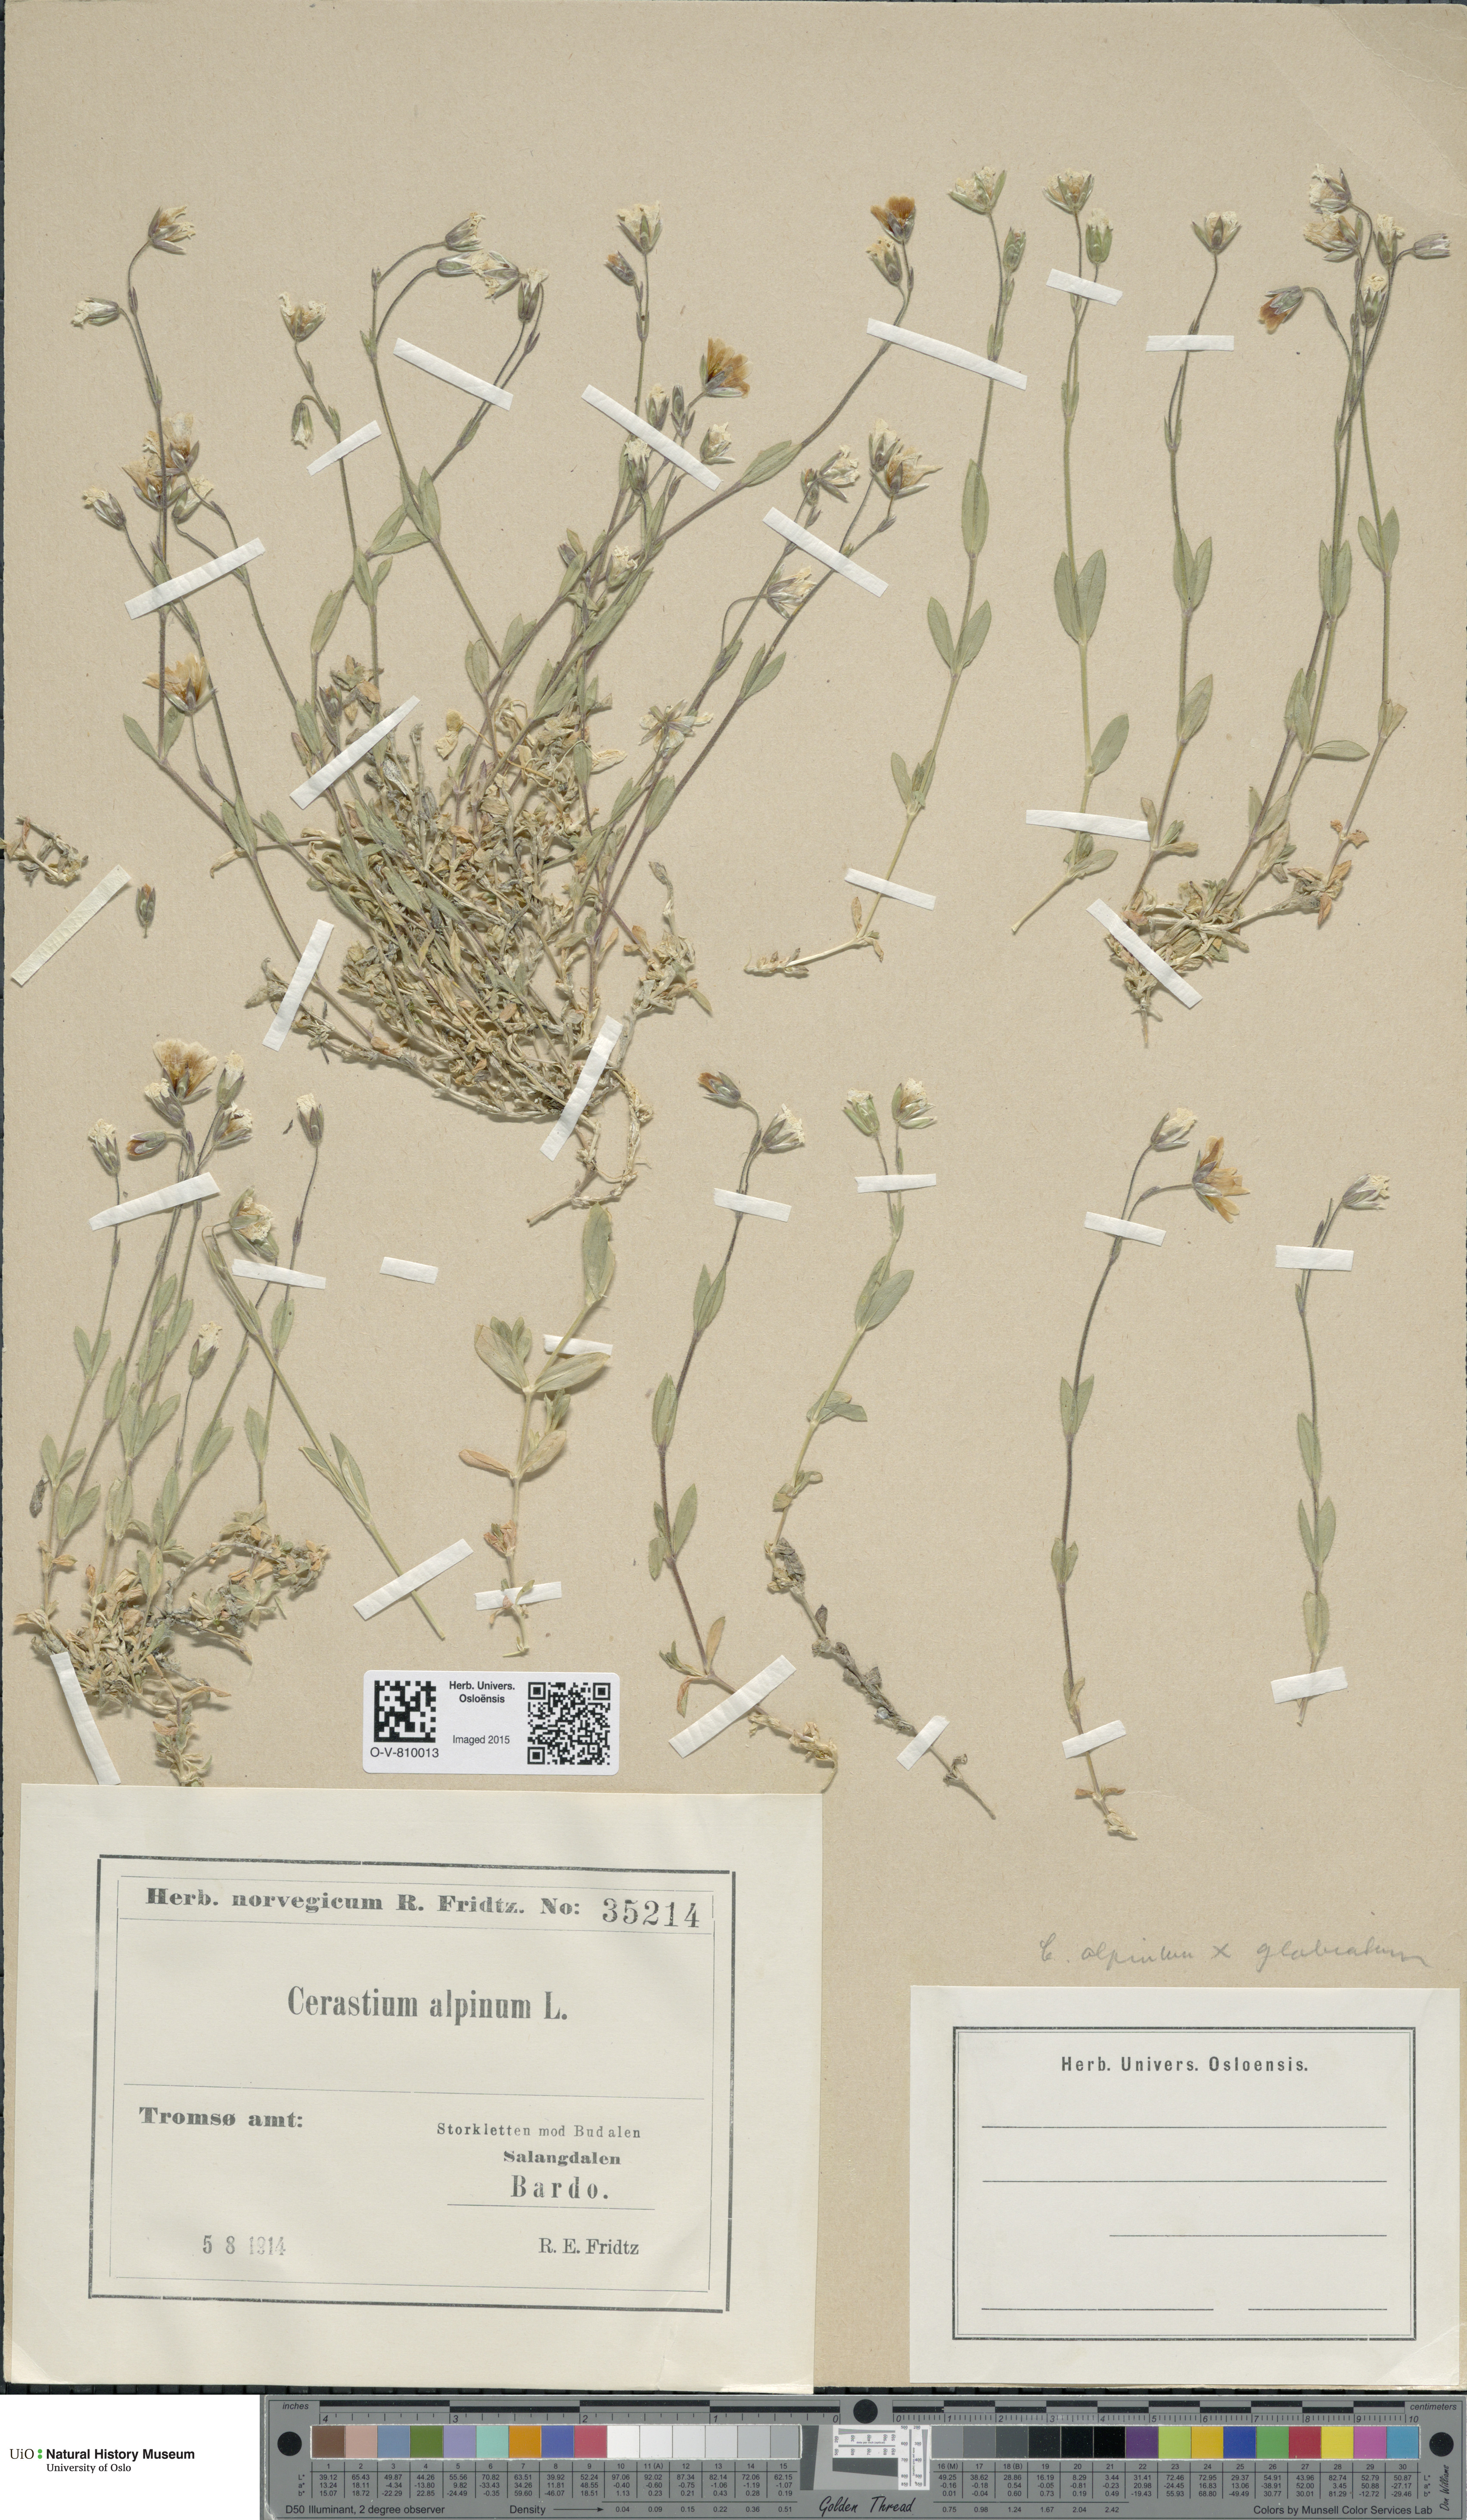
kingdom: Plantae
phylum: Tracheophyta
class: Magnoliopsida
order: Caryophyllales
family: Caryophyllaceae
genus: Cerastium
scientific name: Cerastium
